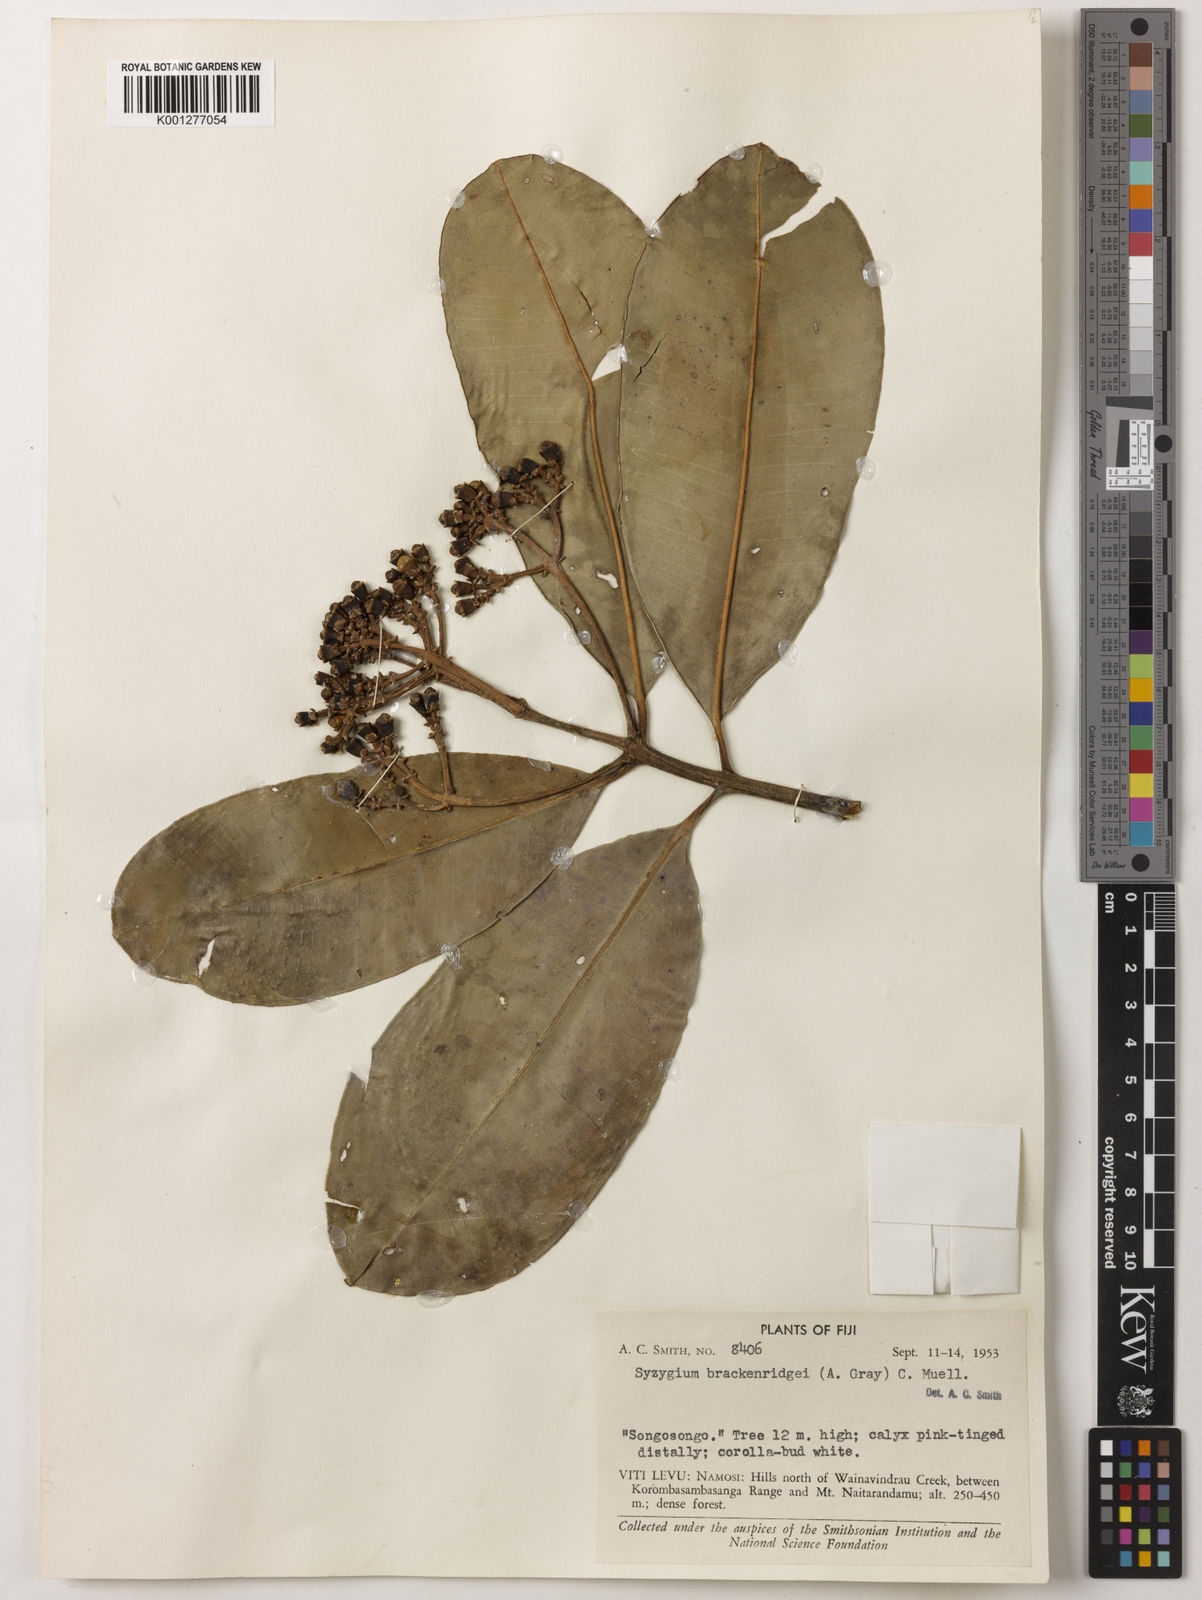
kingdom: Plantae
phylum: Tracheophyta
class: Magnoliopsida
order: Myrtales
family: Myrtaceae
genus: Syzygium
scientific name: Syzygium
